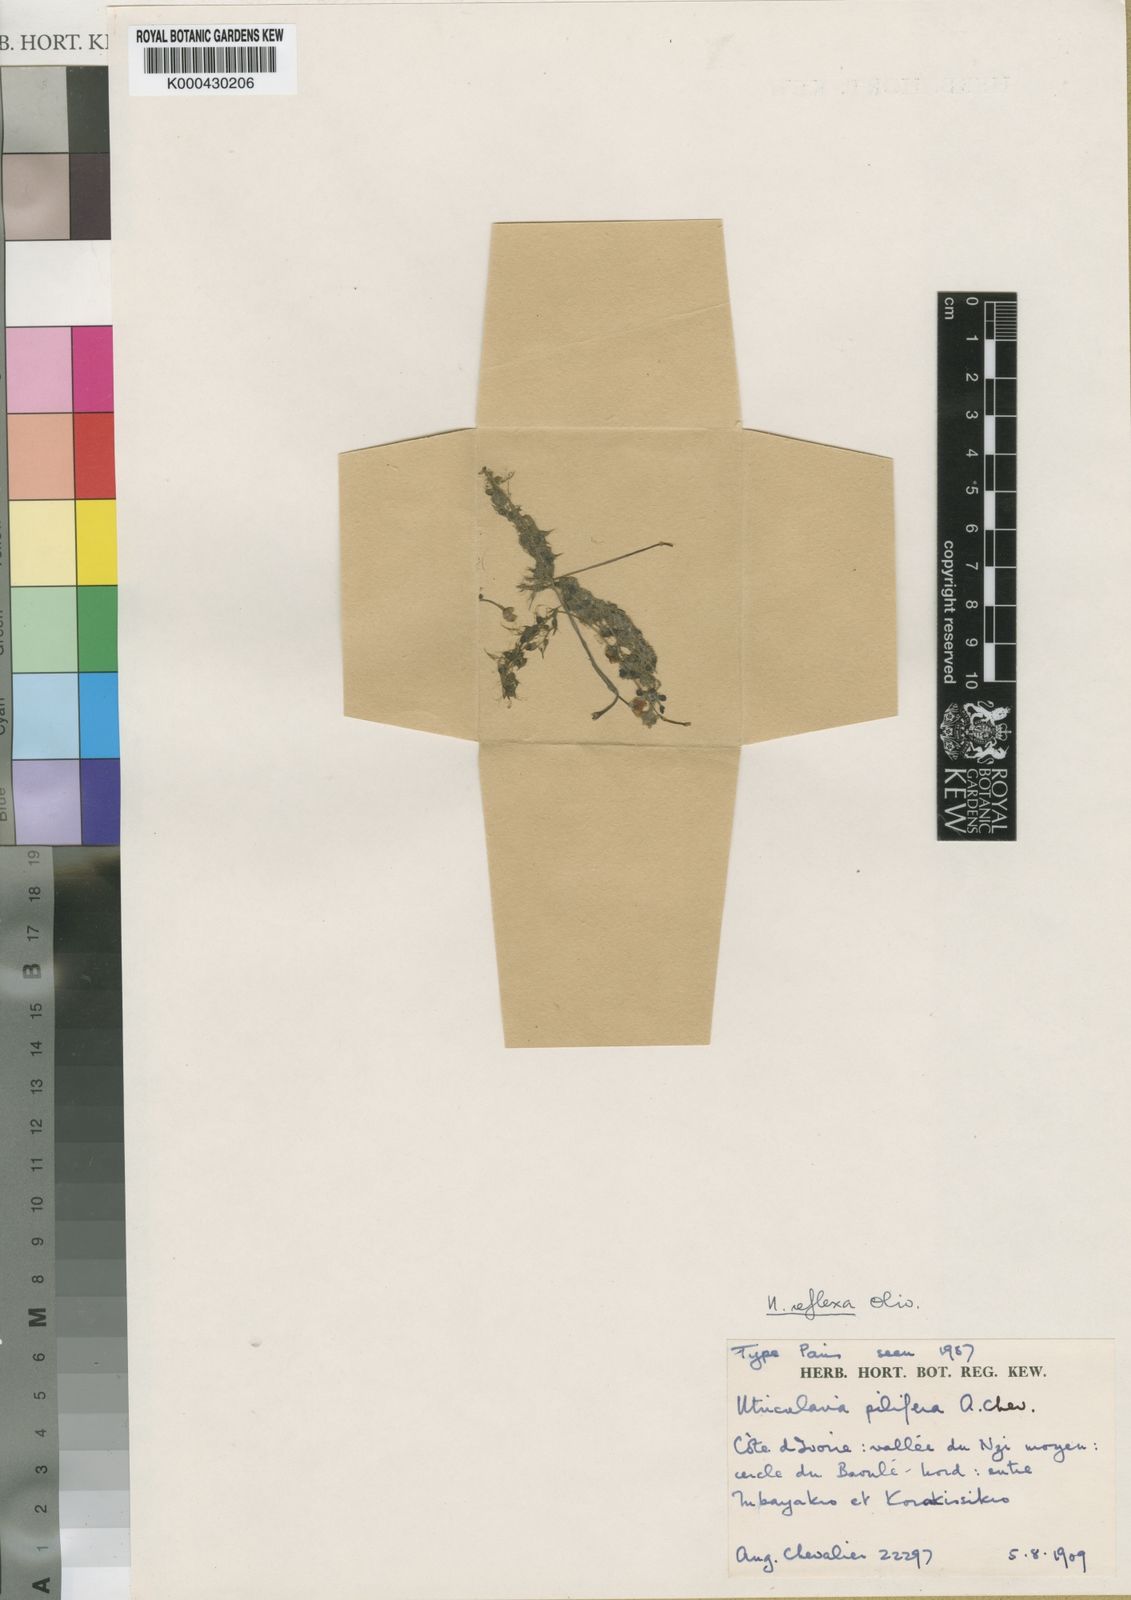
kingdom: Plantae
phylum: Tracheophyta
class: Magnoliopsida
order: Lamiales
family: Lentibulariaceae
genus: Utricularia
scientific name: Utricularia reflexa
